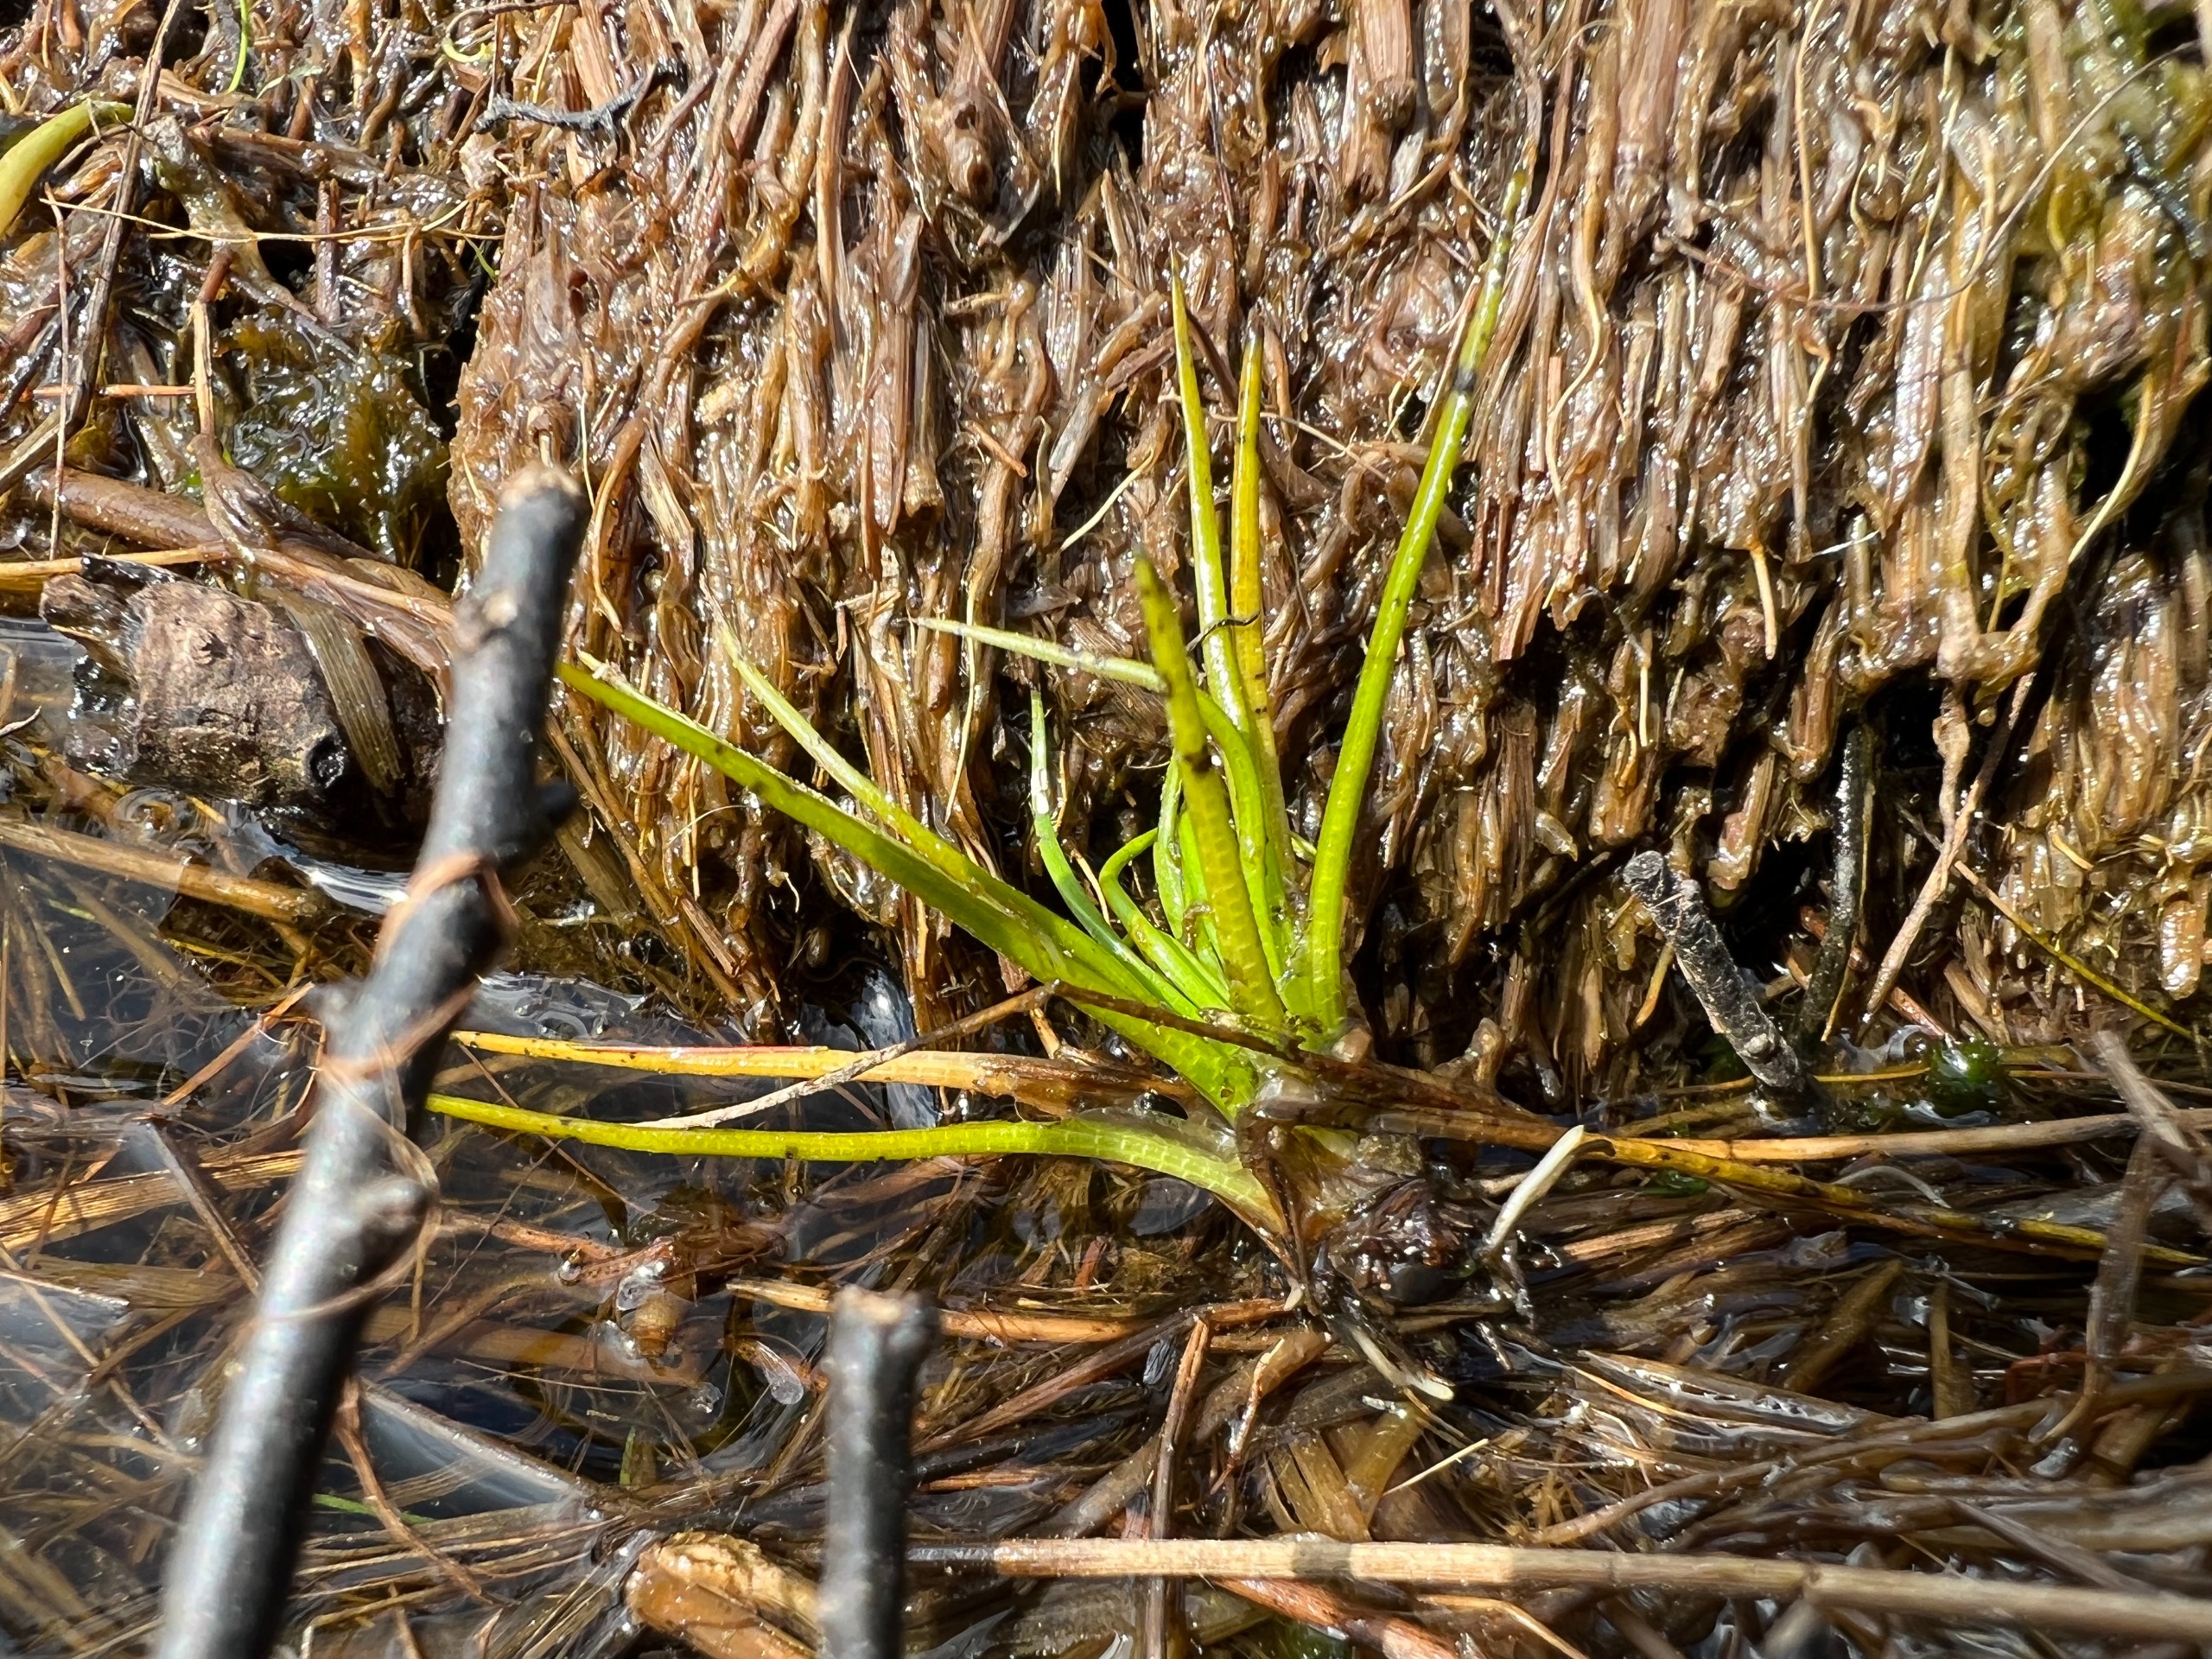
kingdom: Plantae
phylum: Tracheophyta
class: Lycopodiopsida
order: Isoetales
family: Isoetaceae
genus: Isoetes
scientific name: Isoetes
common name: Brasenfødeslægten
